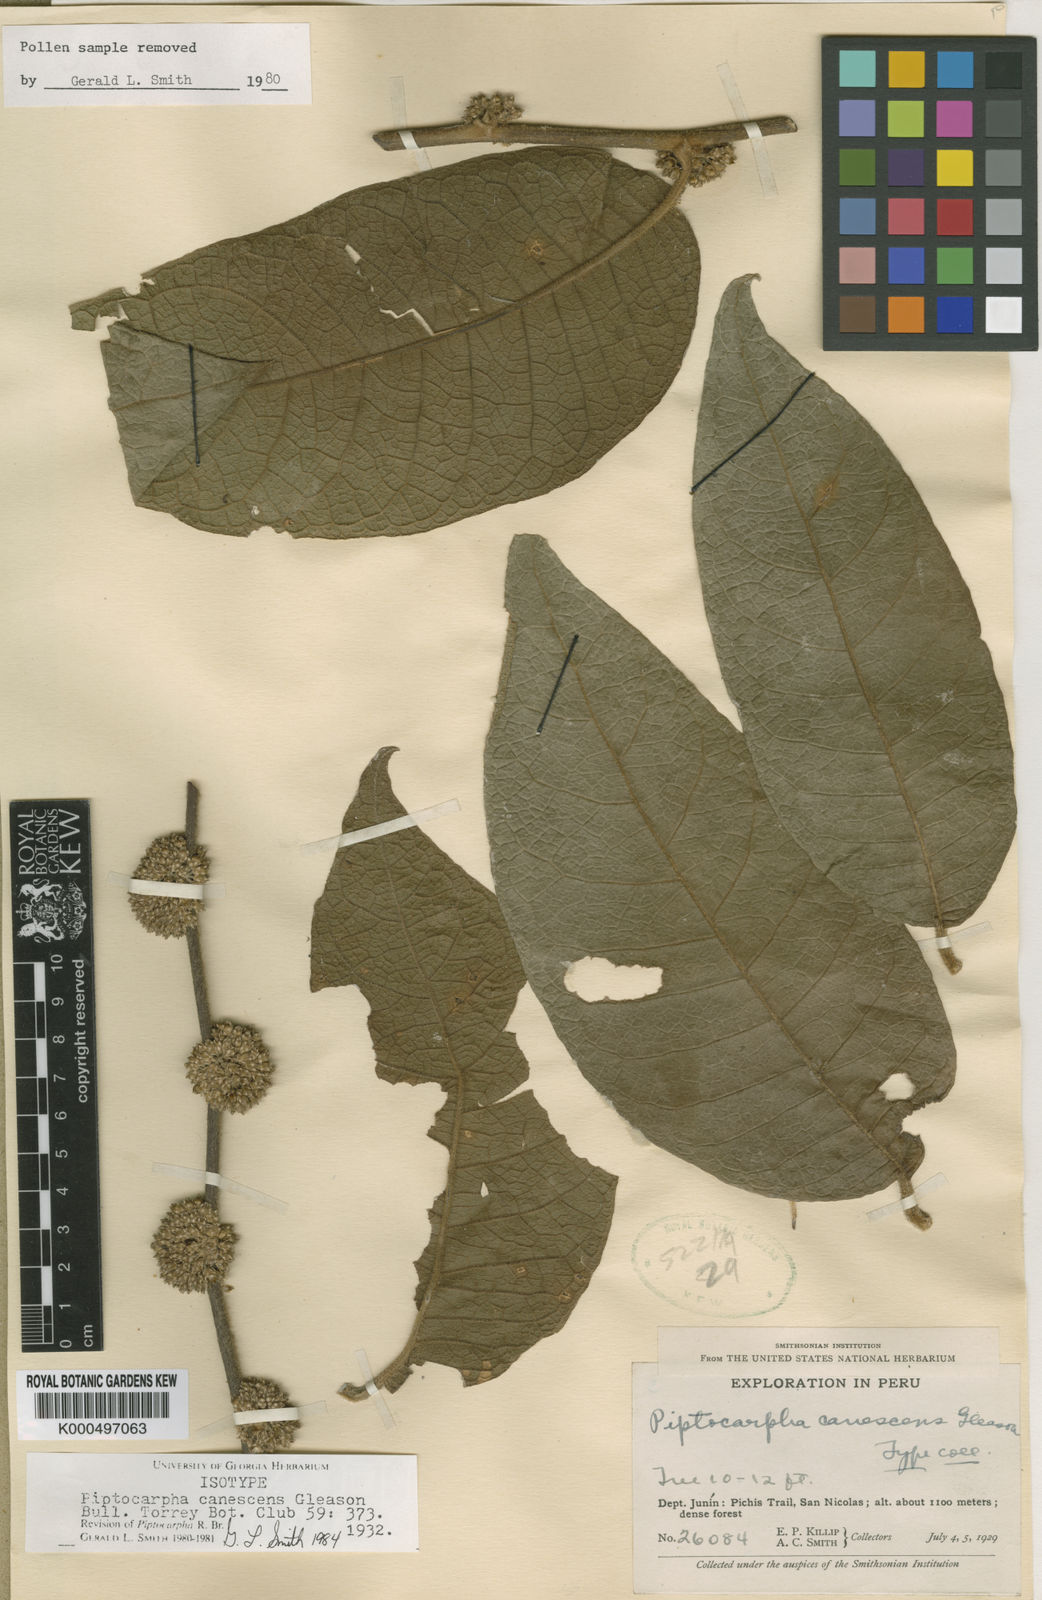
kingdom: Plantae
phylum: Tracheophyta
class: Magnoliopsida
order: Asterales
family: Asteraceae
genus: Piptocarpha
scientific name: Piptocarpha canescens
